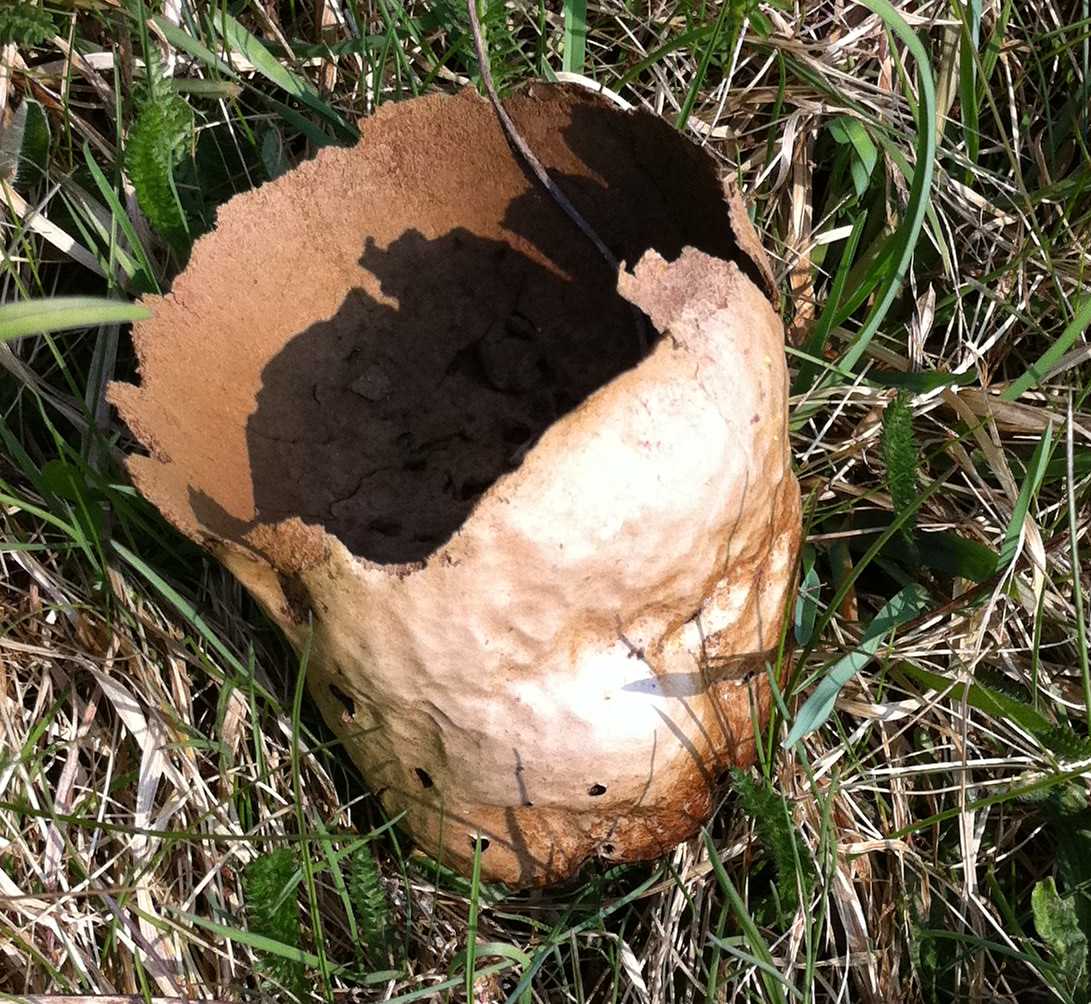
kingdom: Fungi
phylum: Basidiomycota
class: Agaricomycetes
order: Agaricales
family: Lycoperdaceae
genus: Bovistella
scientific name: Bovistella utriformis
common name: skællet støvbold
